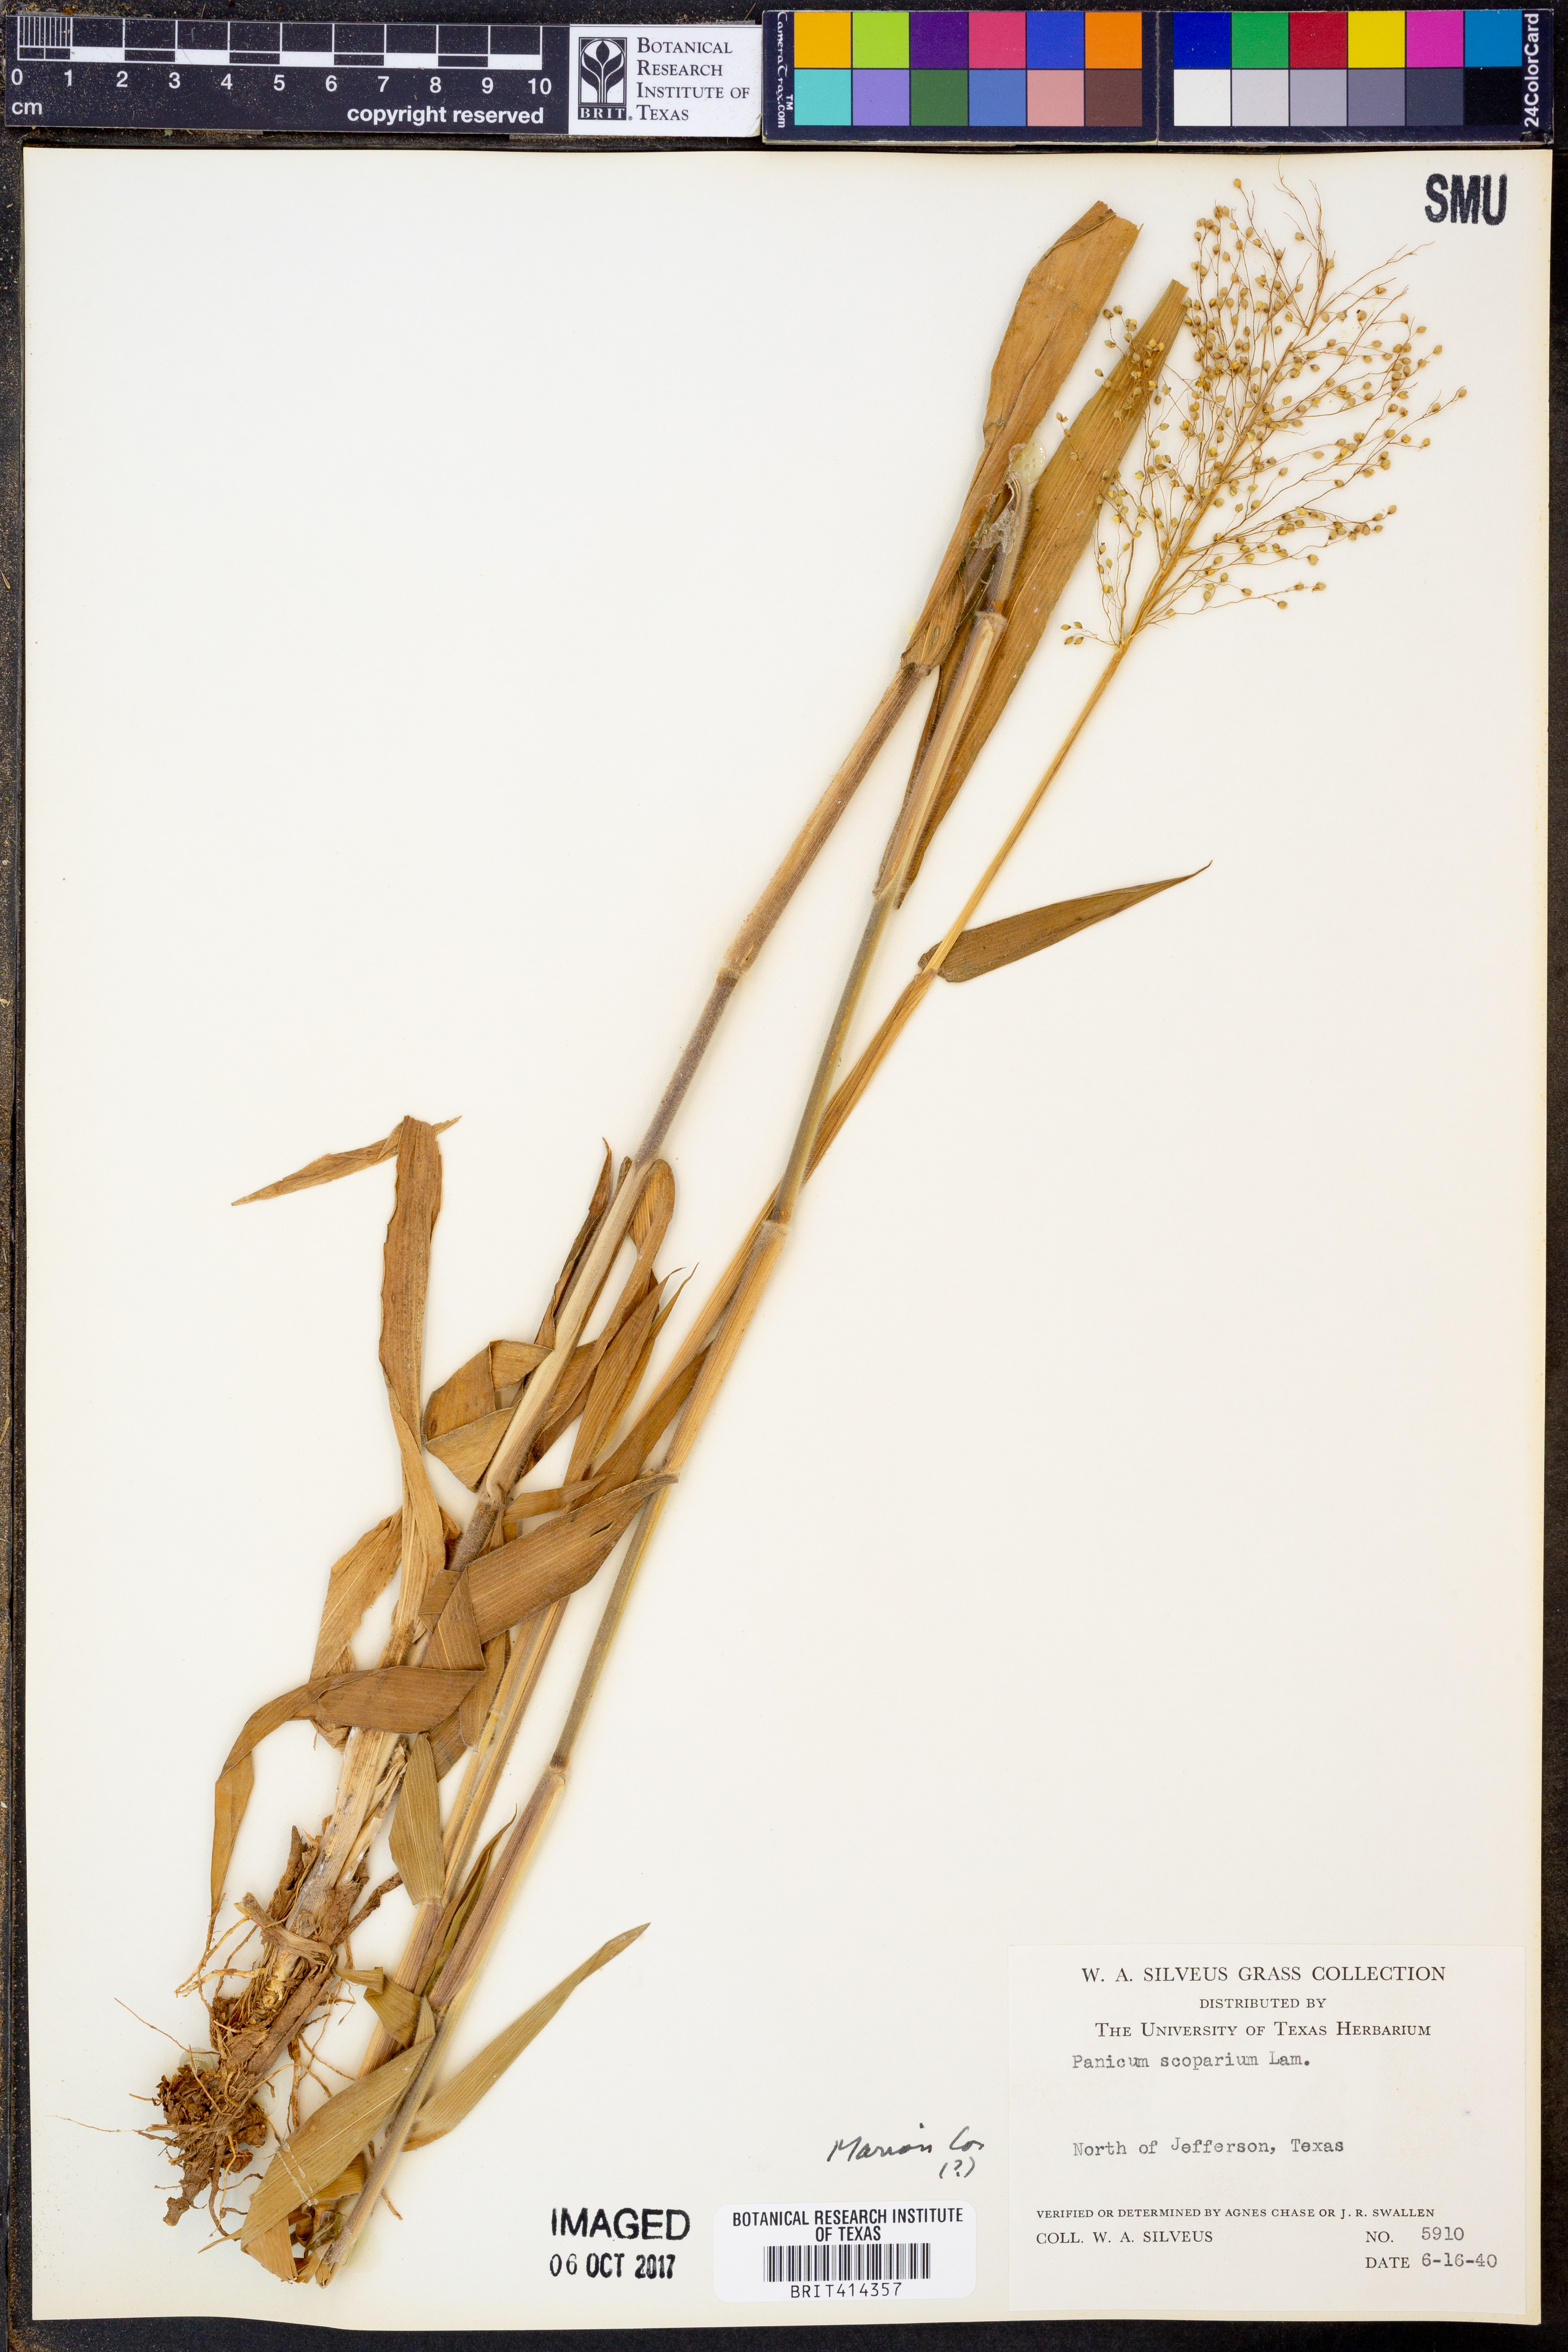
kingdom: Plantae
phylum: Tracheophyta
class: Liliopsida
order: Poales
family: Poaceae
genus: Dichanthelium
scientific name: Dichanthelium scribnerianum
